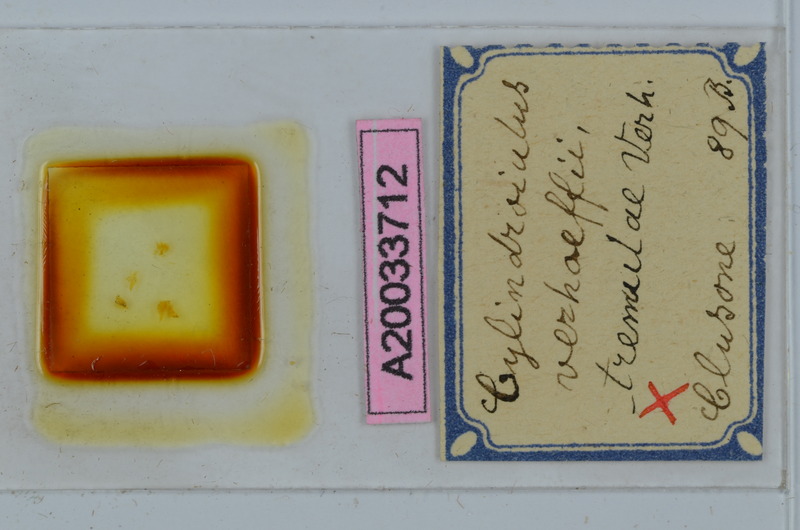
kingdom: Animalia
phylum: Arthropoda
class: Diplopoda
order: Julida
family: Julidae
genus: Cylindroiulus
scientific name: Cylindroiulus verhoeffi
